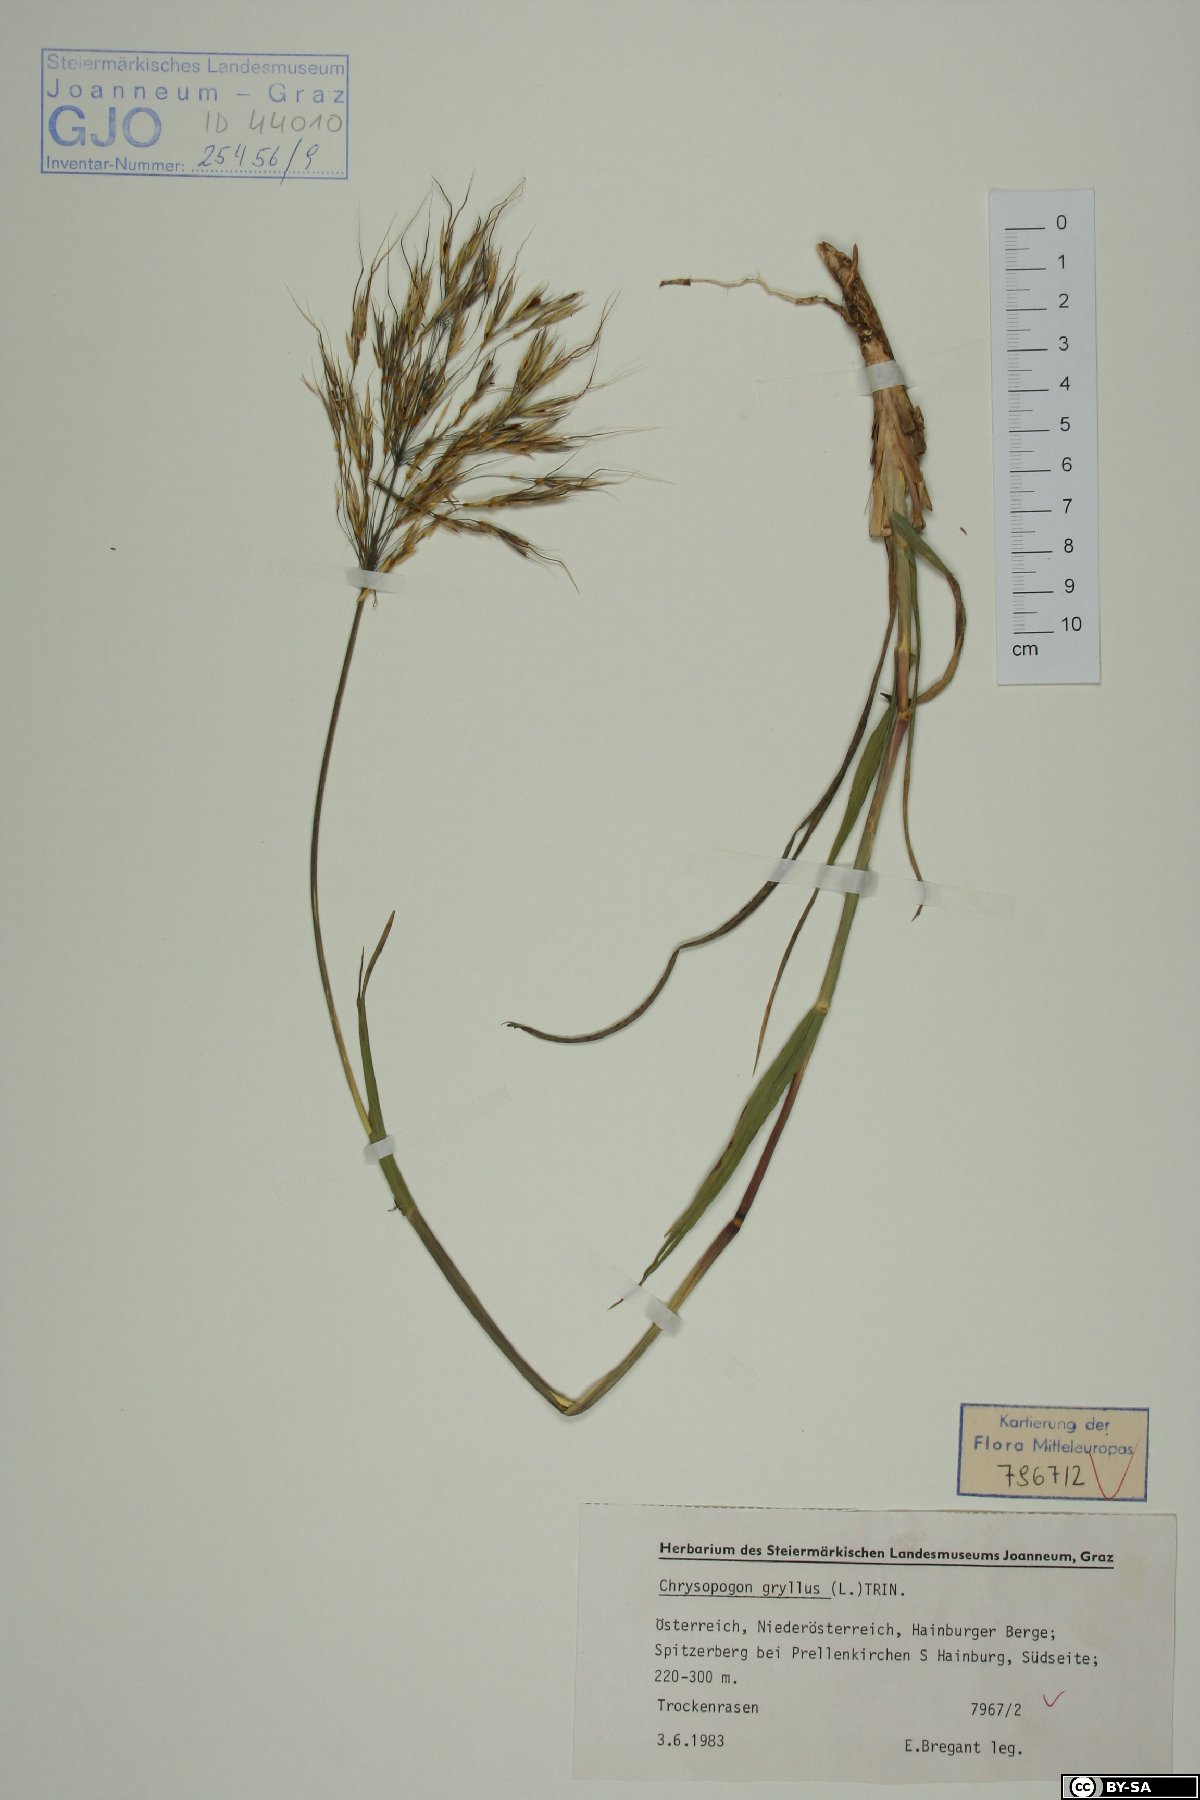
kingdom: Plantae
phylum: Tracheophyta
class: Liliopsida
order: Poales
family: Poaceae
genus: Chrysopogon
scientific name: Chrysopogon gryllus
